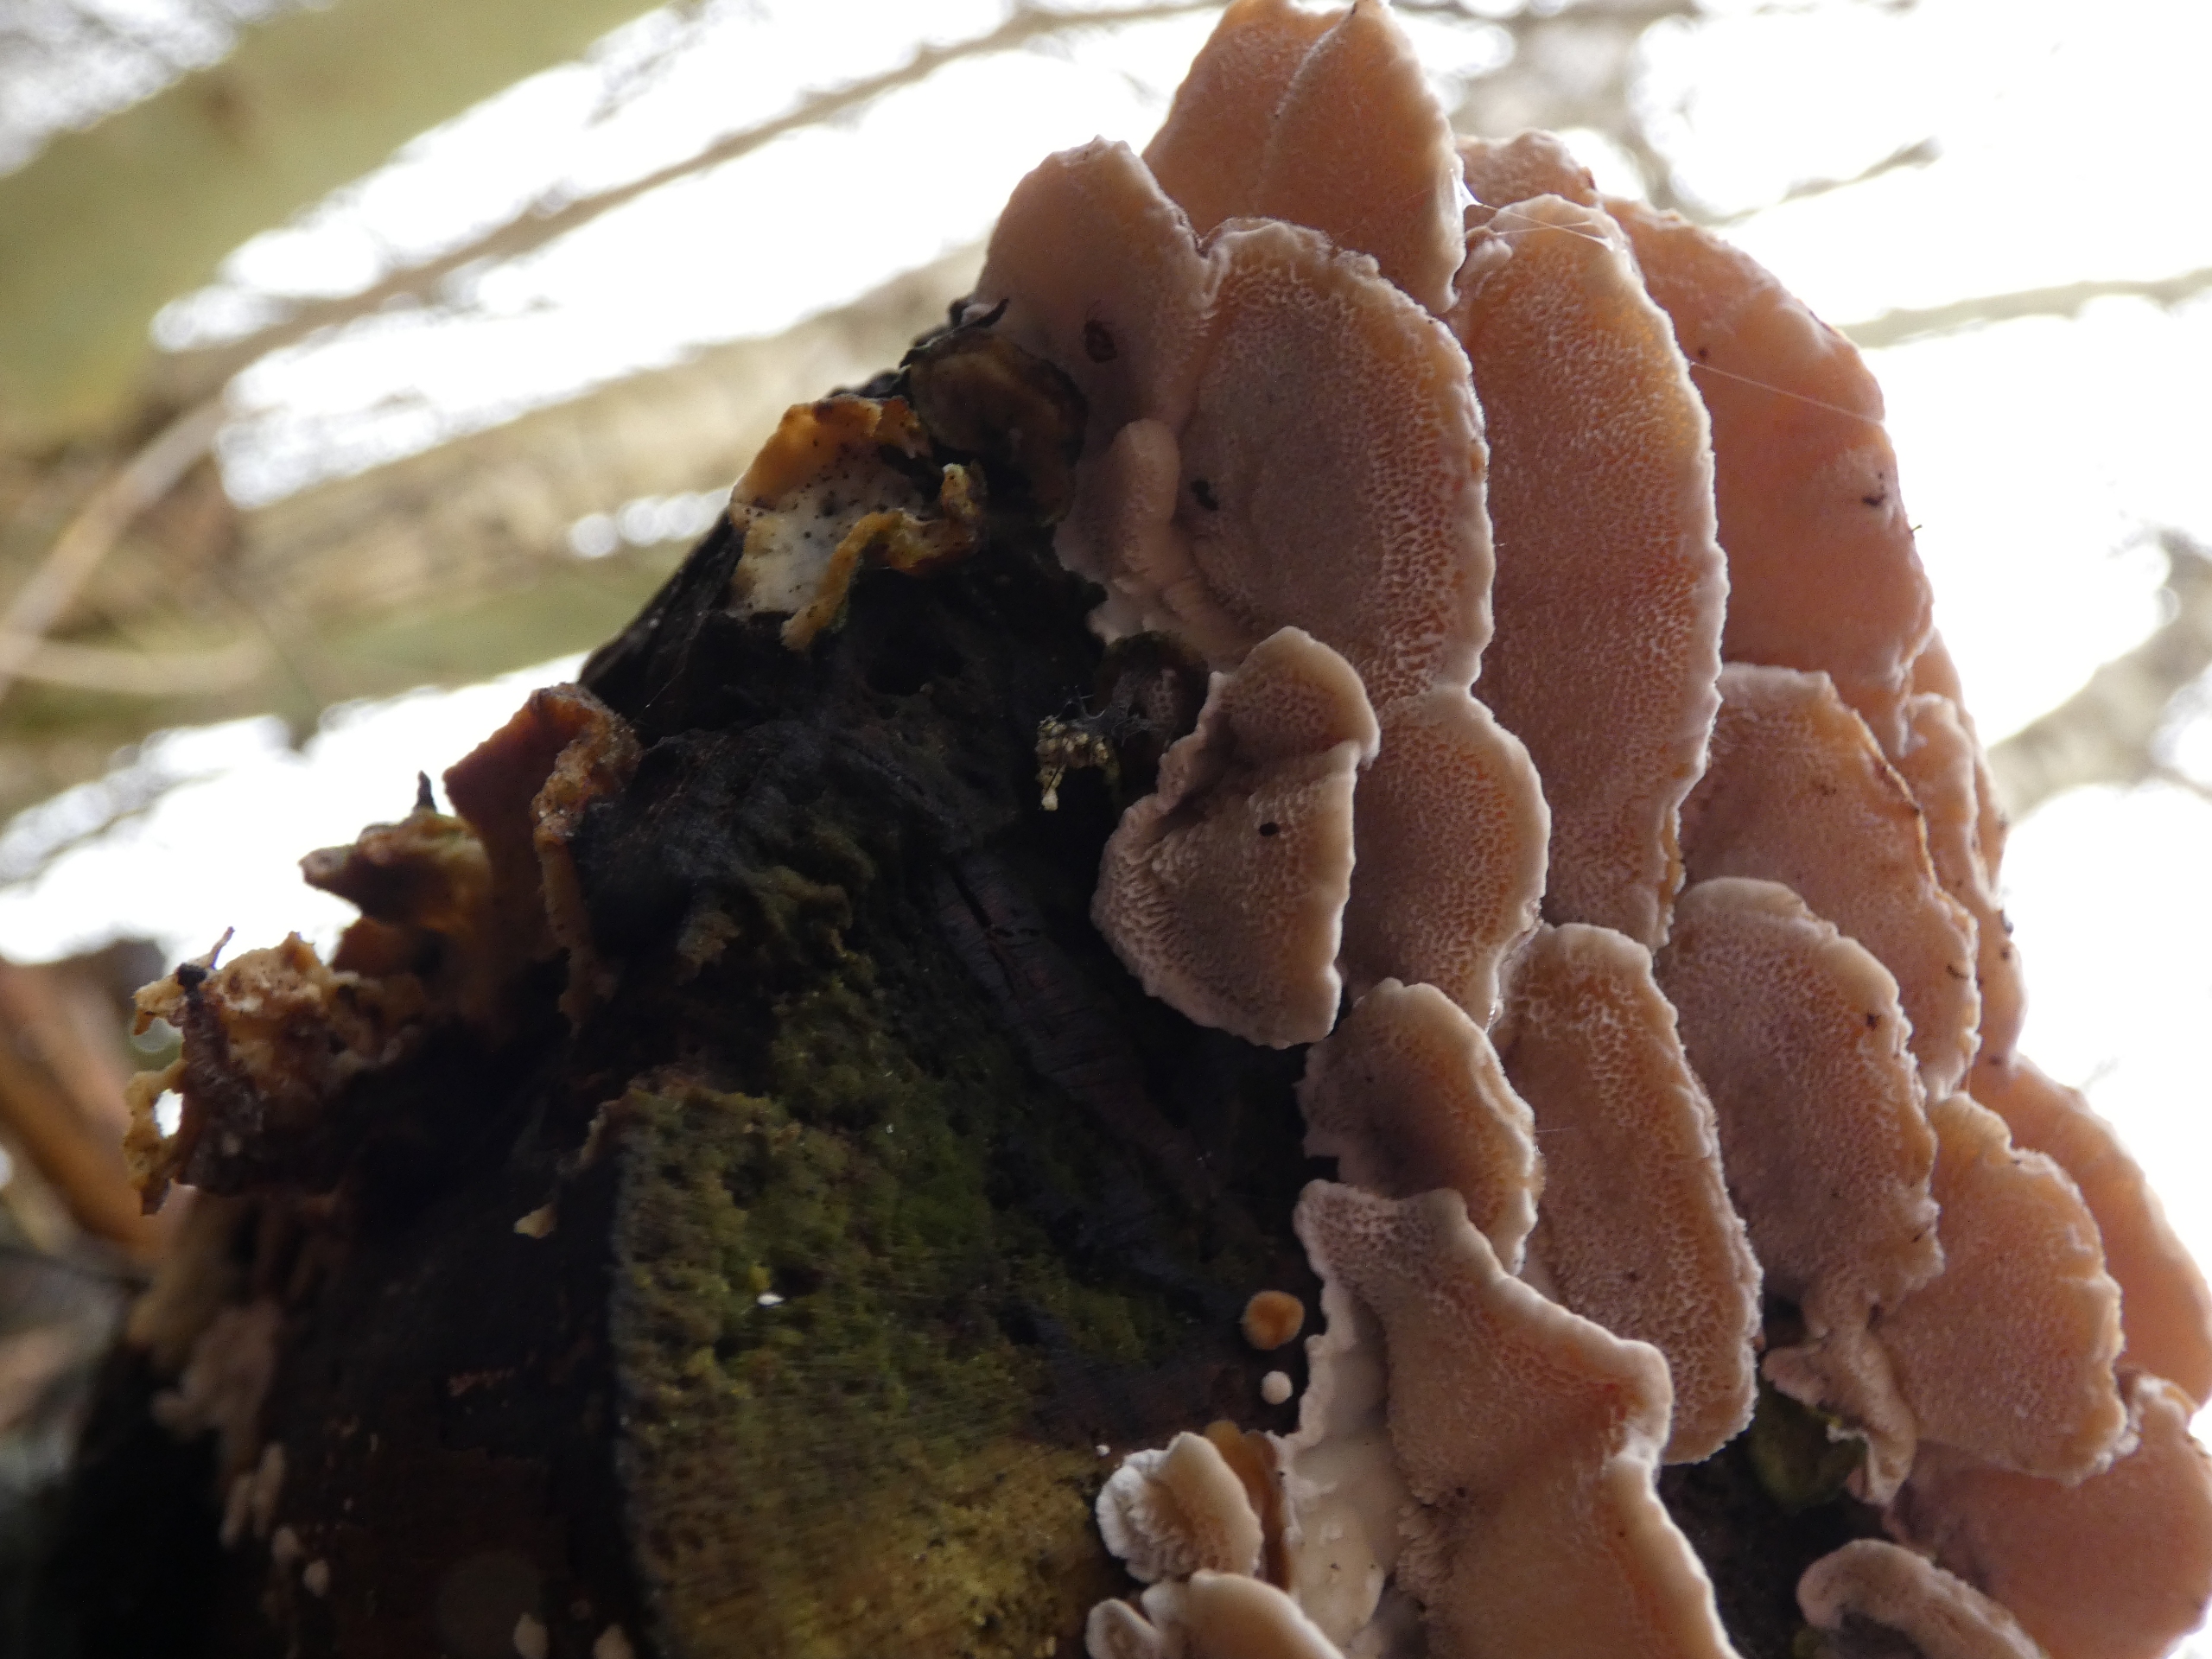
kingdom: Fungi
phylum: Basidiomycota
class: Agaricomycetes
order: Polyporales
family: Polyporaceae
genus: Trametes
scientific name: Trametes ochracea
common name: Bæltet læderporesvamp
